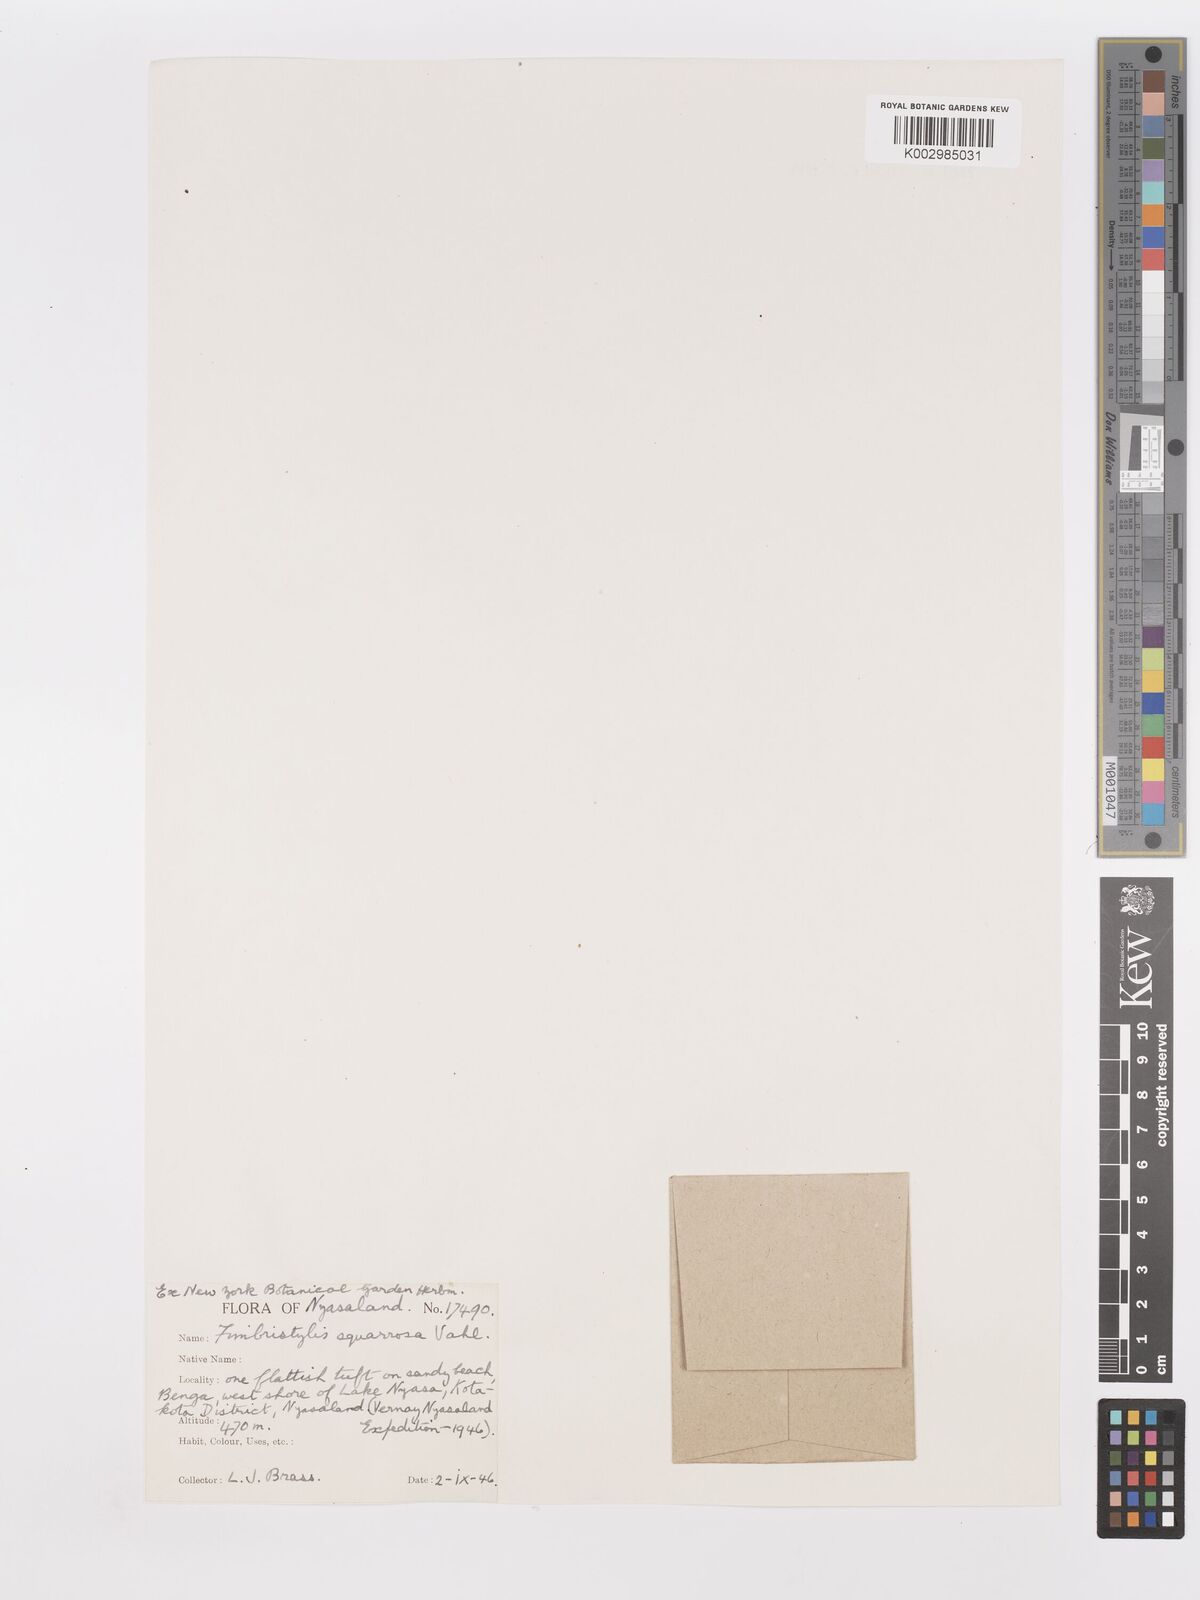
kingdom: Plantae
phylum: Tracheophyta
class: Liliopsida
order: Poales
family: Cyperaceae
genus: Fimbristylis
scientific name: Fimbristylis squarrosa
